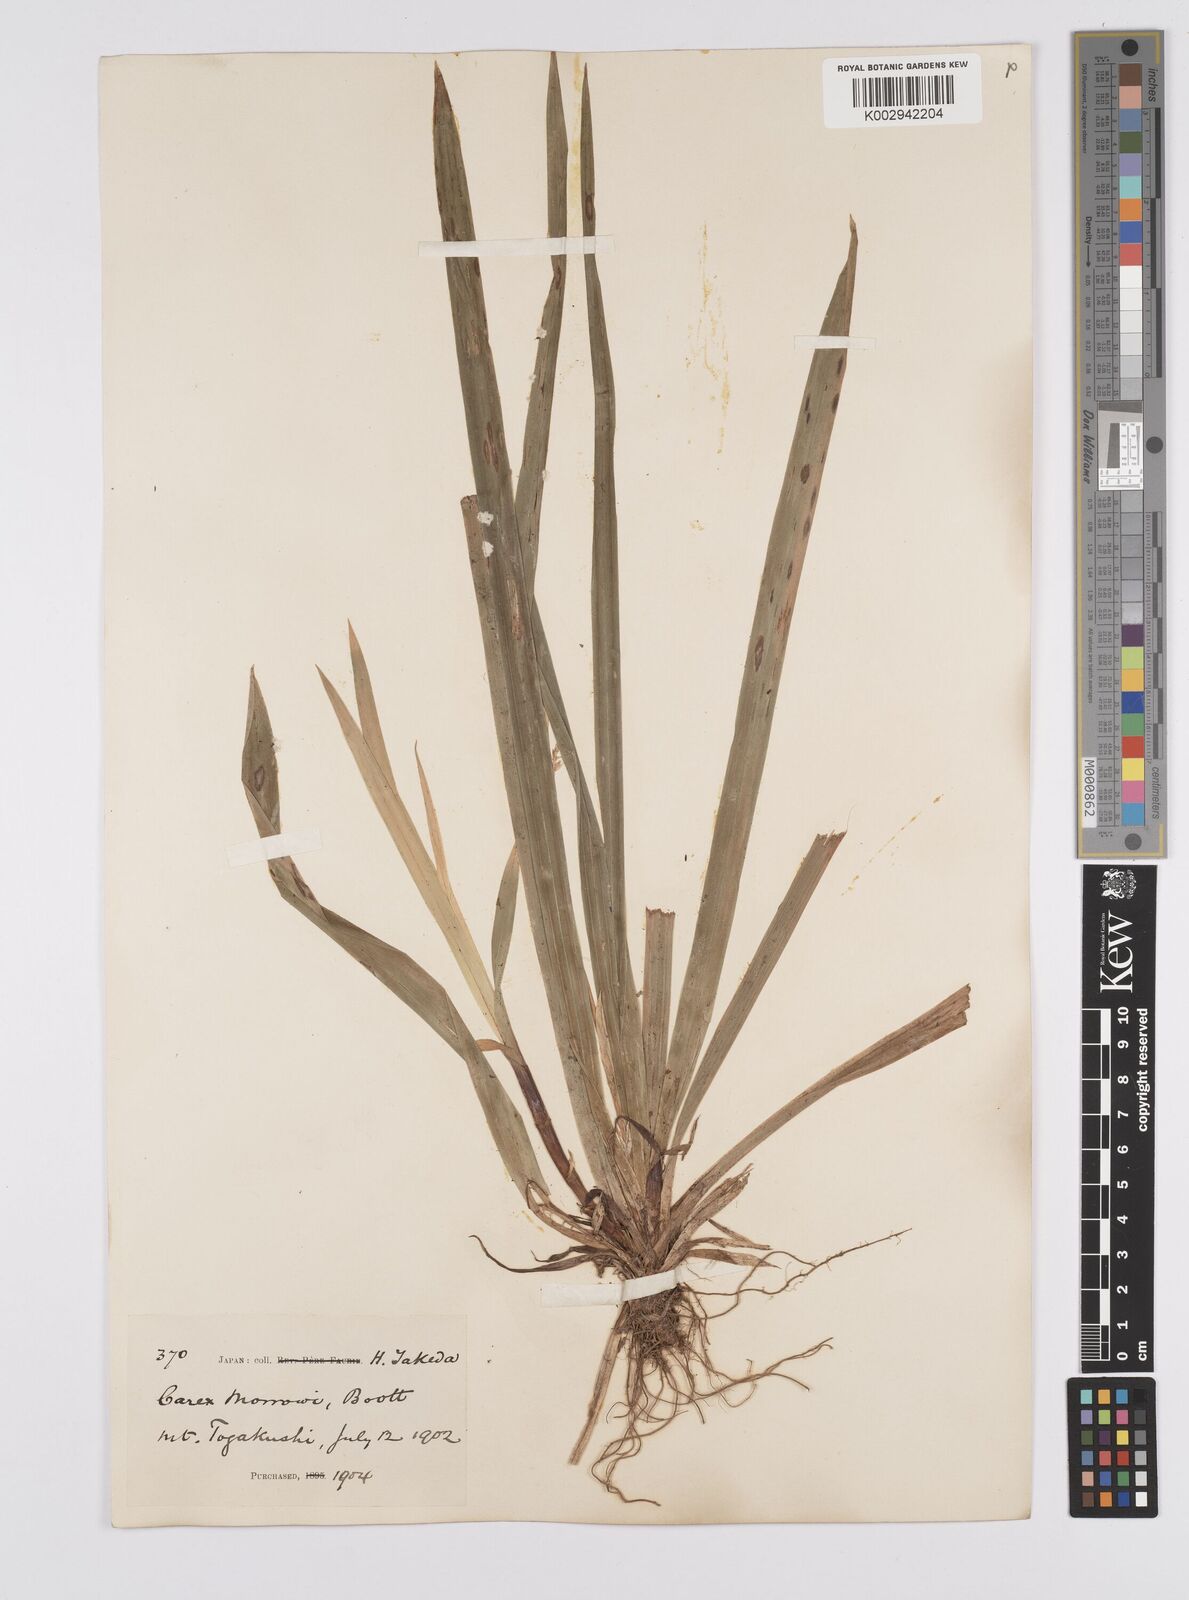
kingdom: Plantae
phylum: Tracheophyta
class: Liliopsida
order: Poales
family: Cyperaceae
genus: Carex
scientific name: Carex morrowii
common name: Japanese sedge
